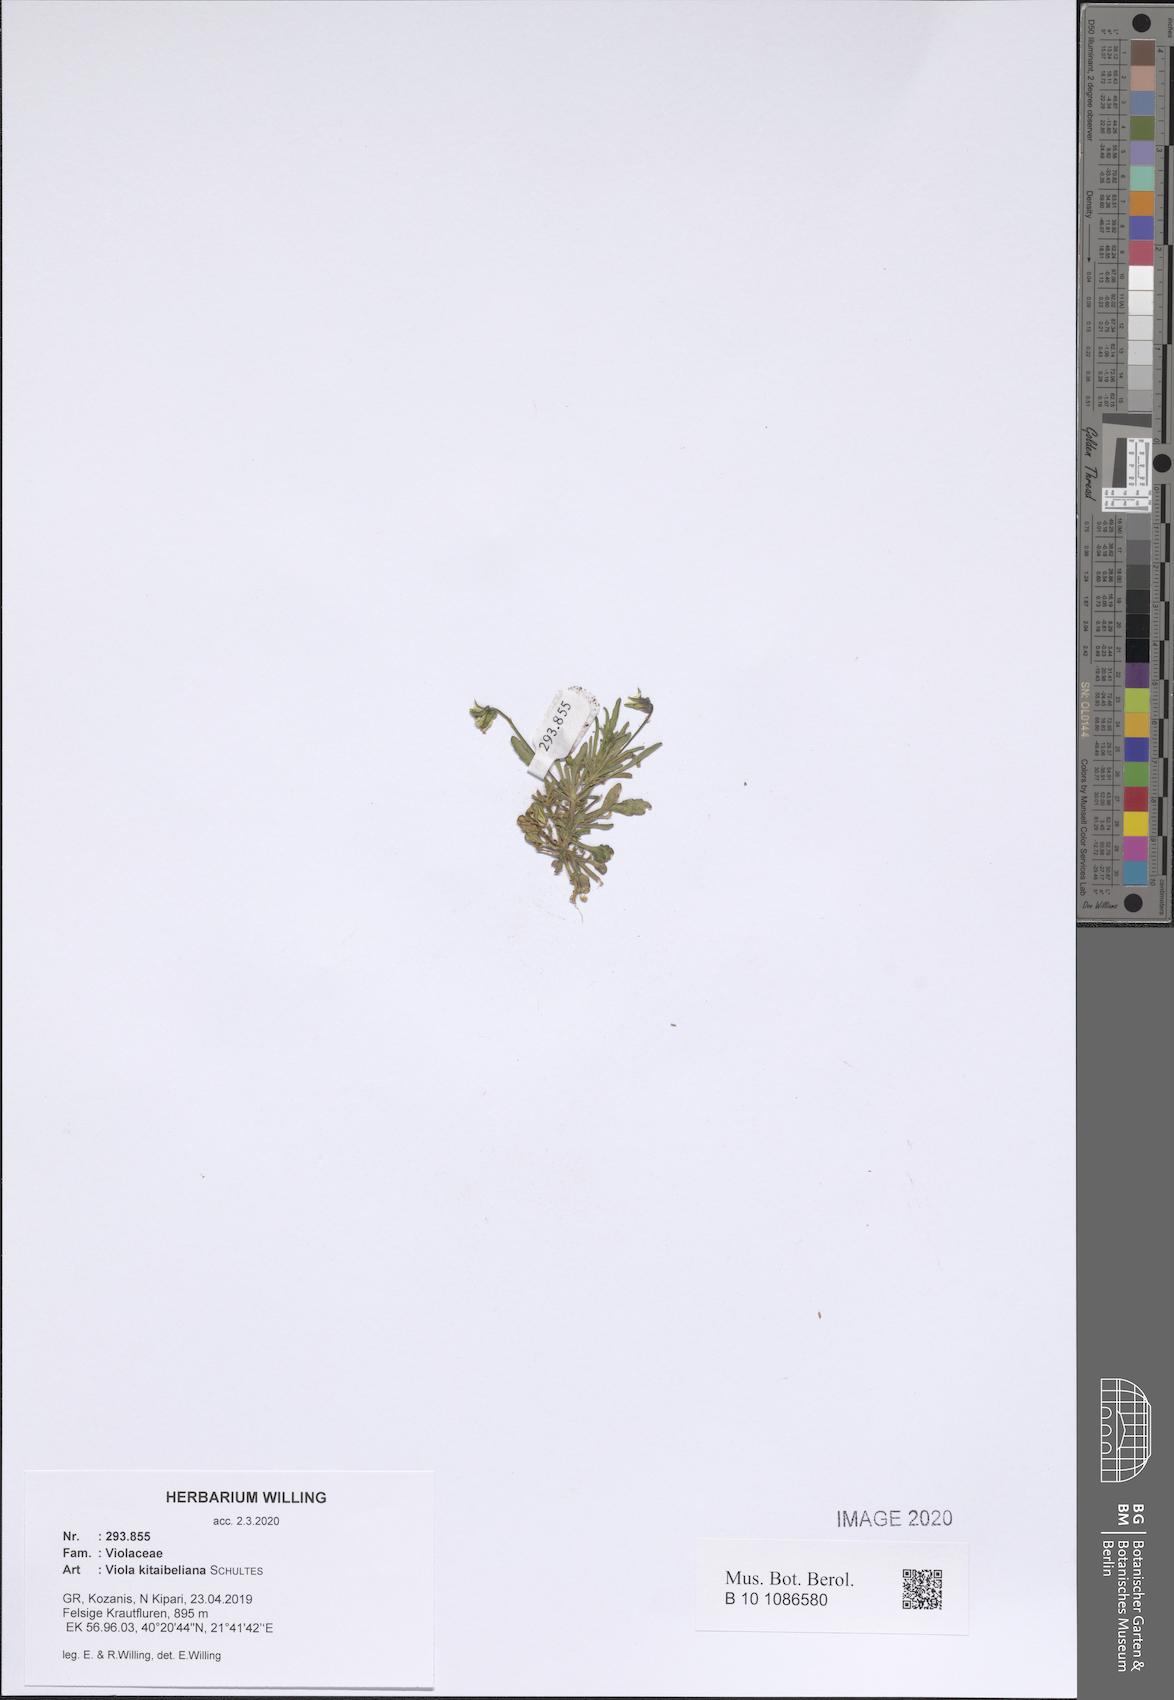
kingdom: Plantae
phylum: Tracheophyta
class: Magnoliopsida
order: Malpighiales
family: Violaceae
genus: Viola
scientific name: Viola kitaibeliana
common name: Dwarf pansy
